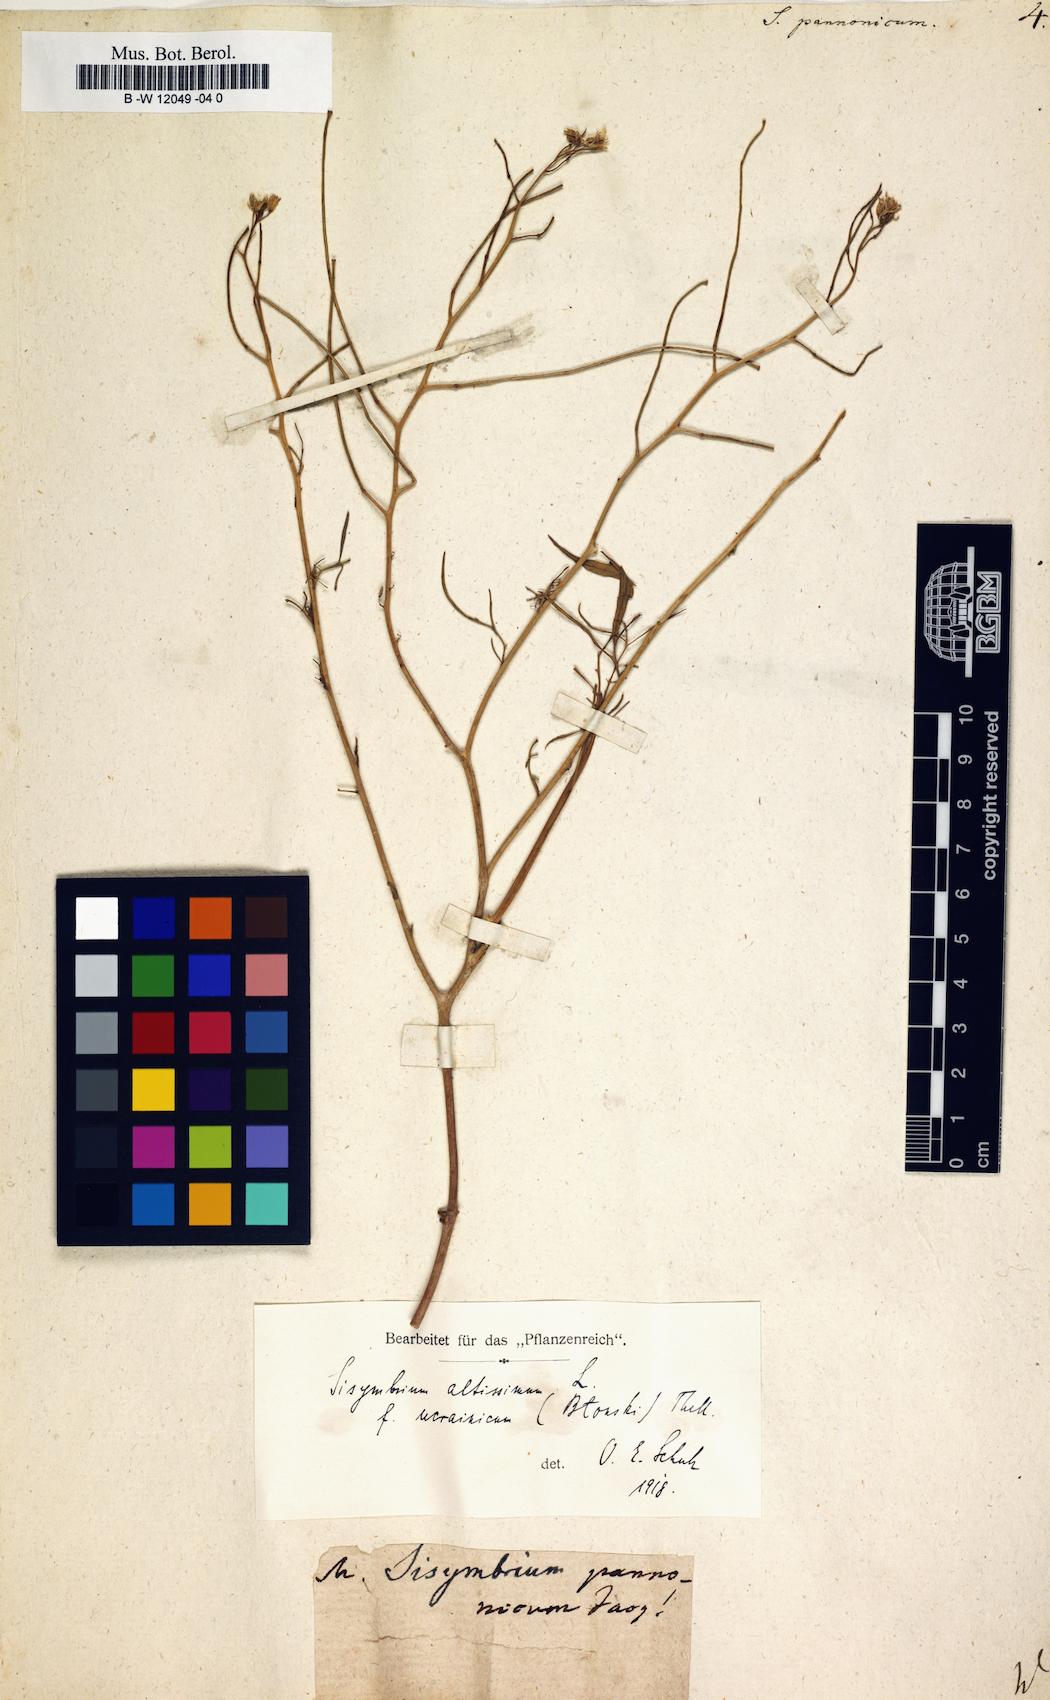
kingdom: Plantae
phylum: Tracheophyta
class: Magnoliopsida
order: Brassicales
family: Brassicaceae
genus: Sisymbrium
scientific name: Sisymbrium
